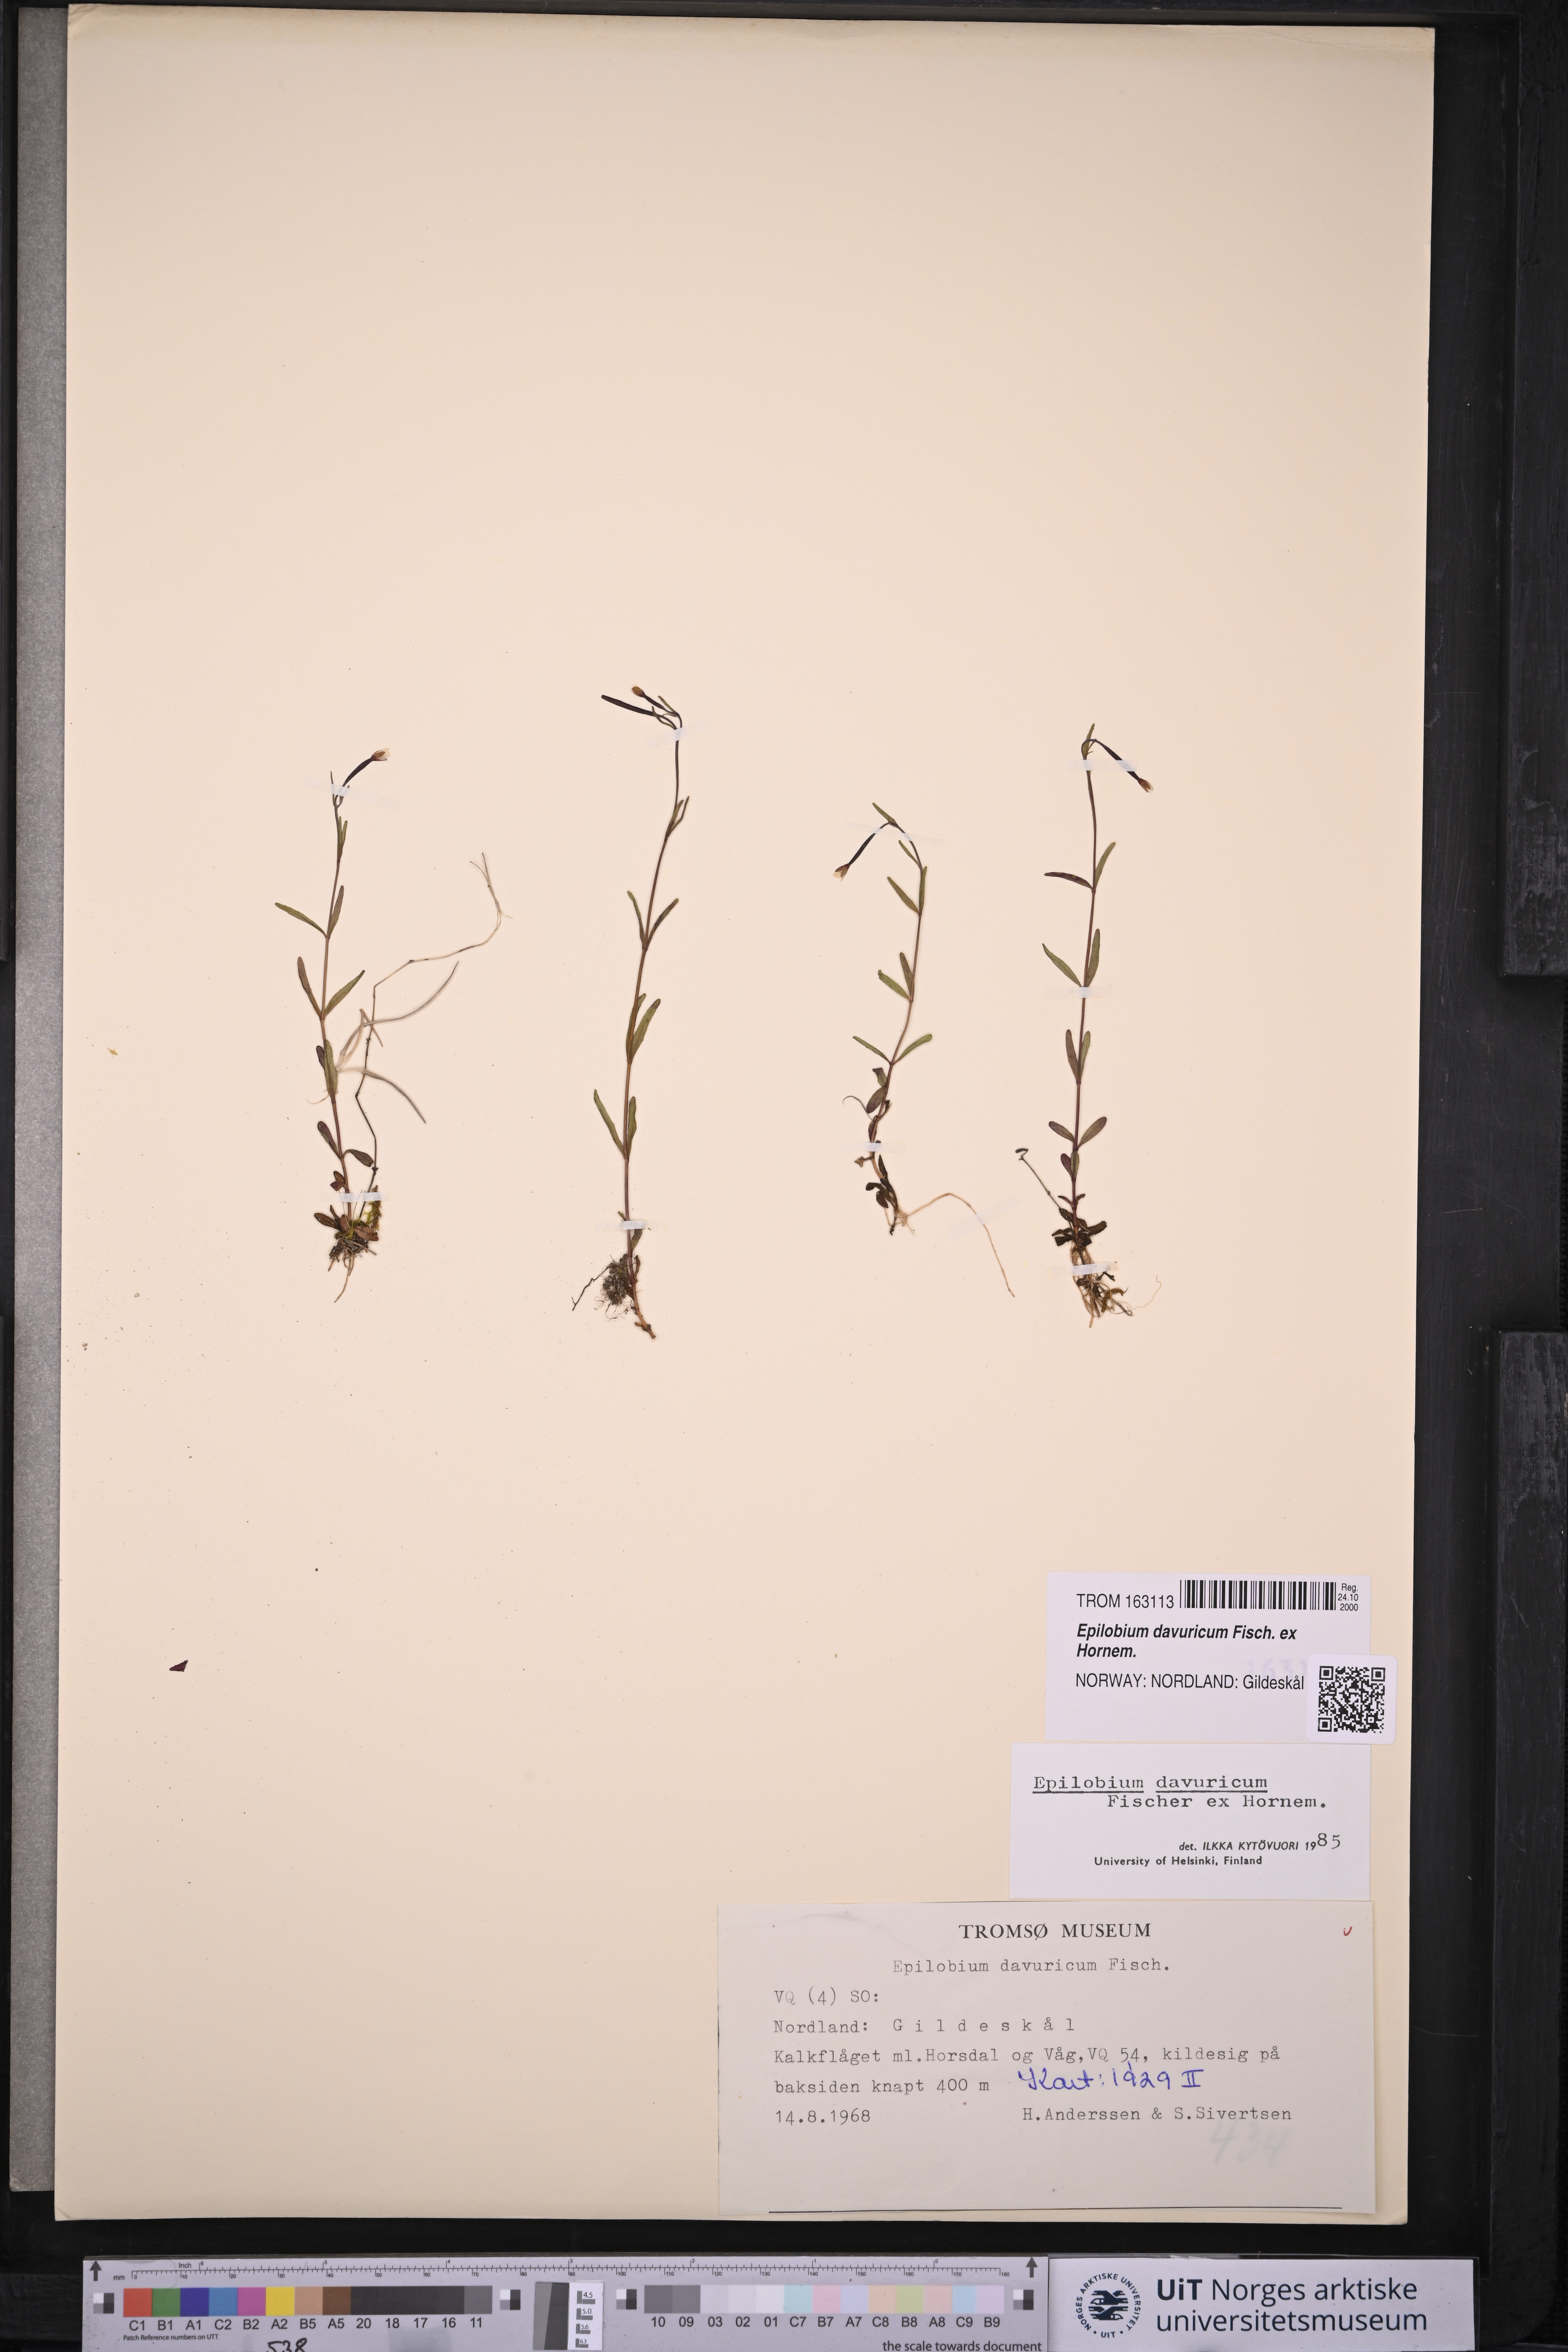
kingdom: Plantae
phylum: Tracheophyta
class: Magnoliopsida
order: Myrtales
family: Onagraceae
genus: Epilobium
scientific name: Epilobium davuricum
